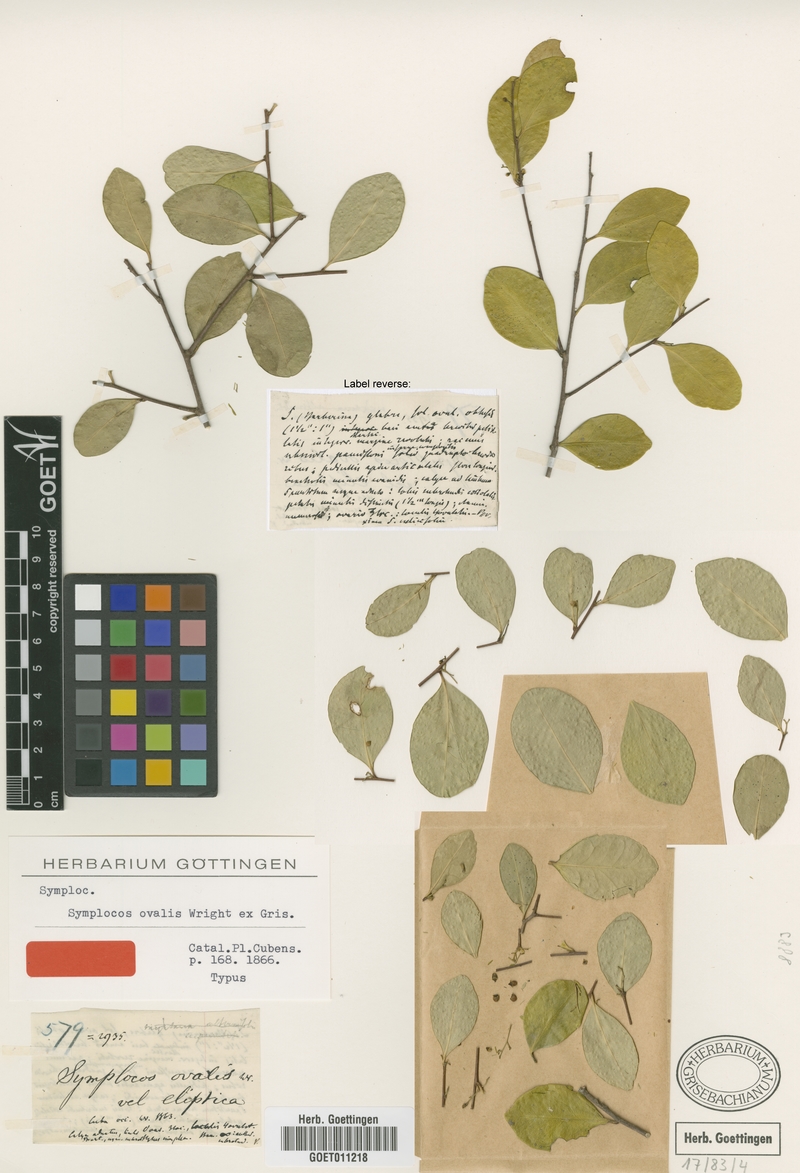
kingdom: Plantae
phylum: Tracheophyta
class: Magnoliopsida
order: Ericales
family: Symplocaceae
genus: Symplocos
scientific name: Symplocos ovalis
